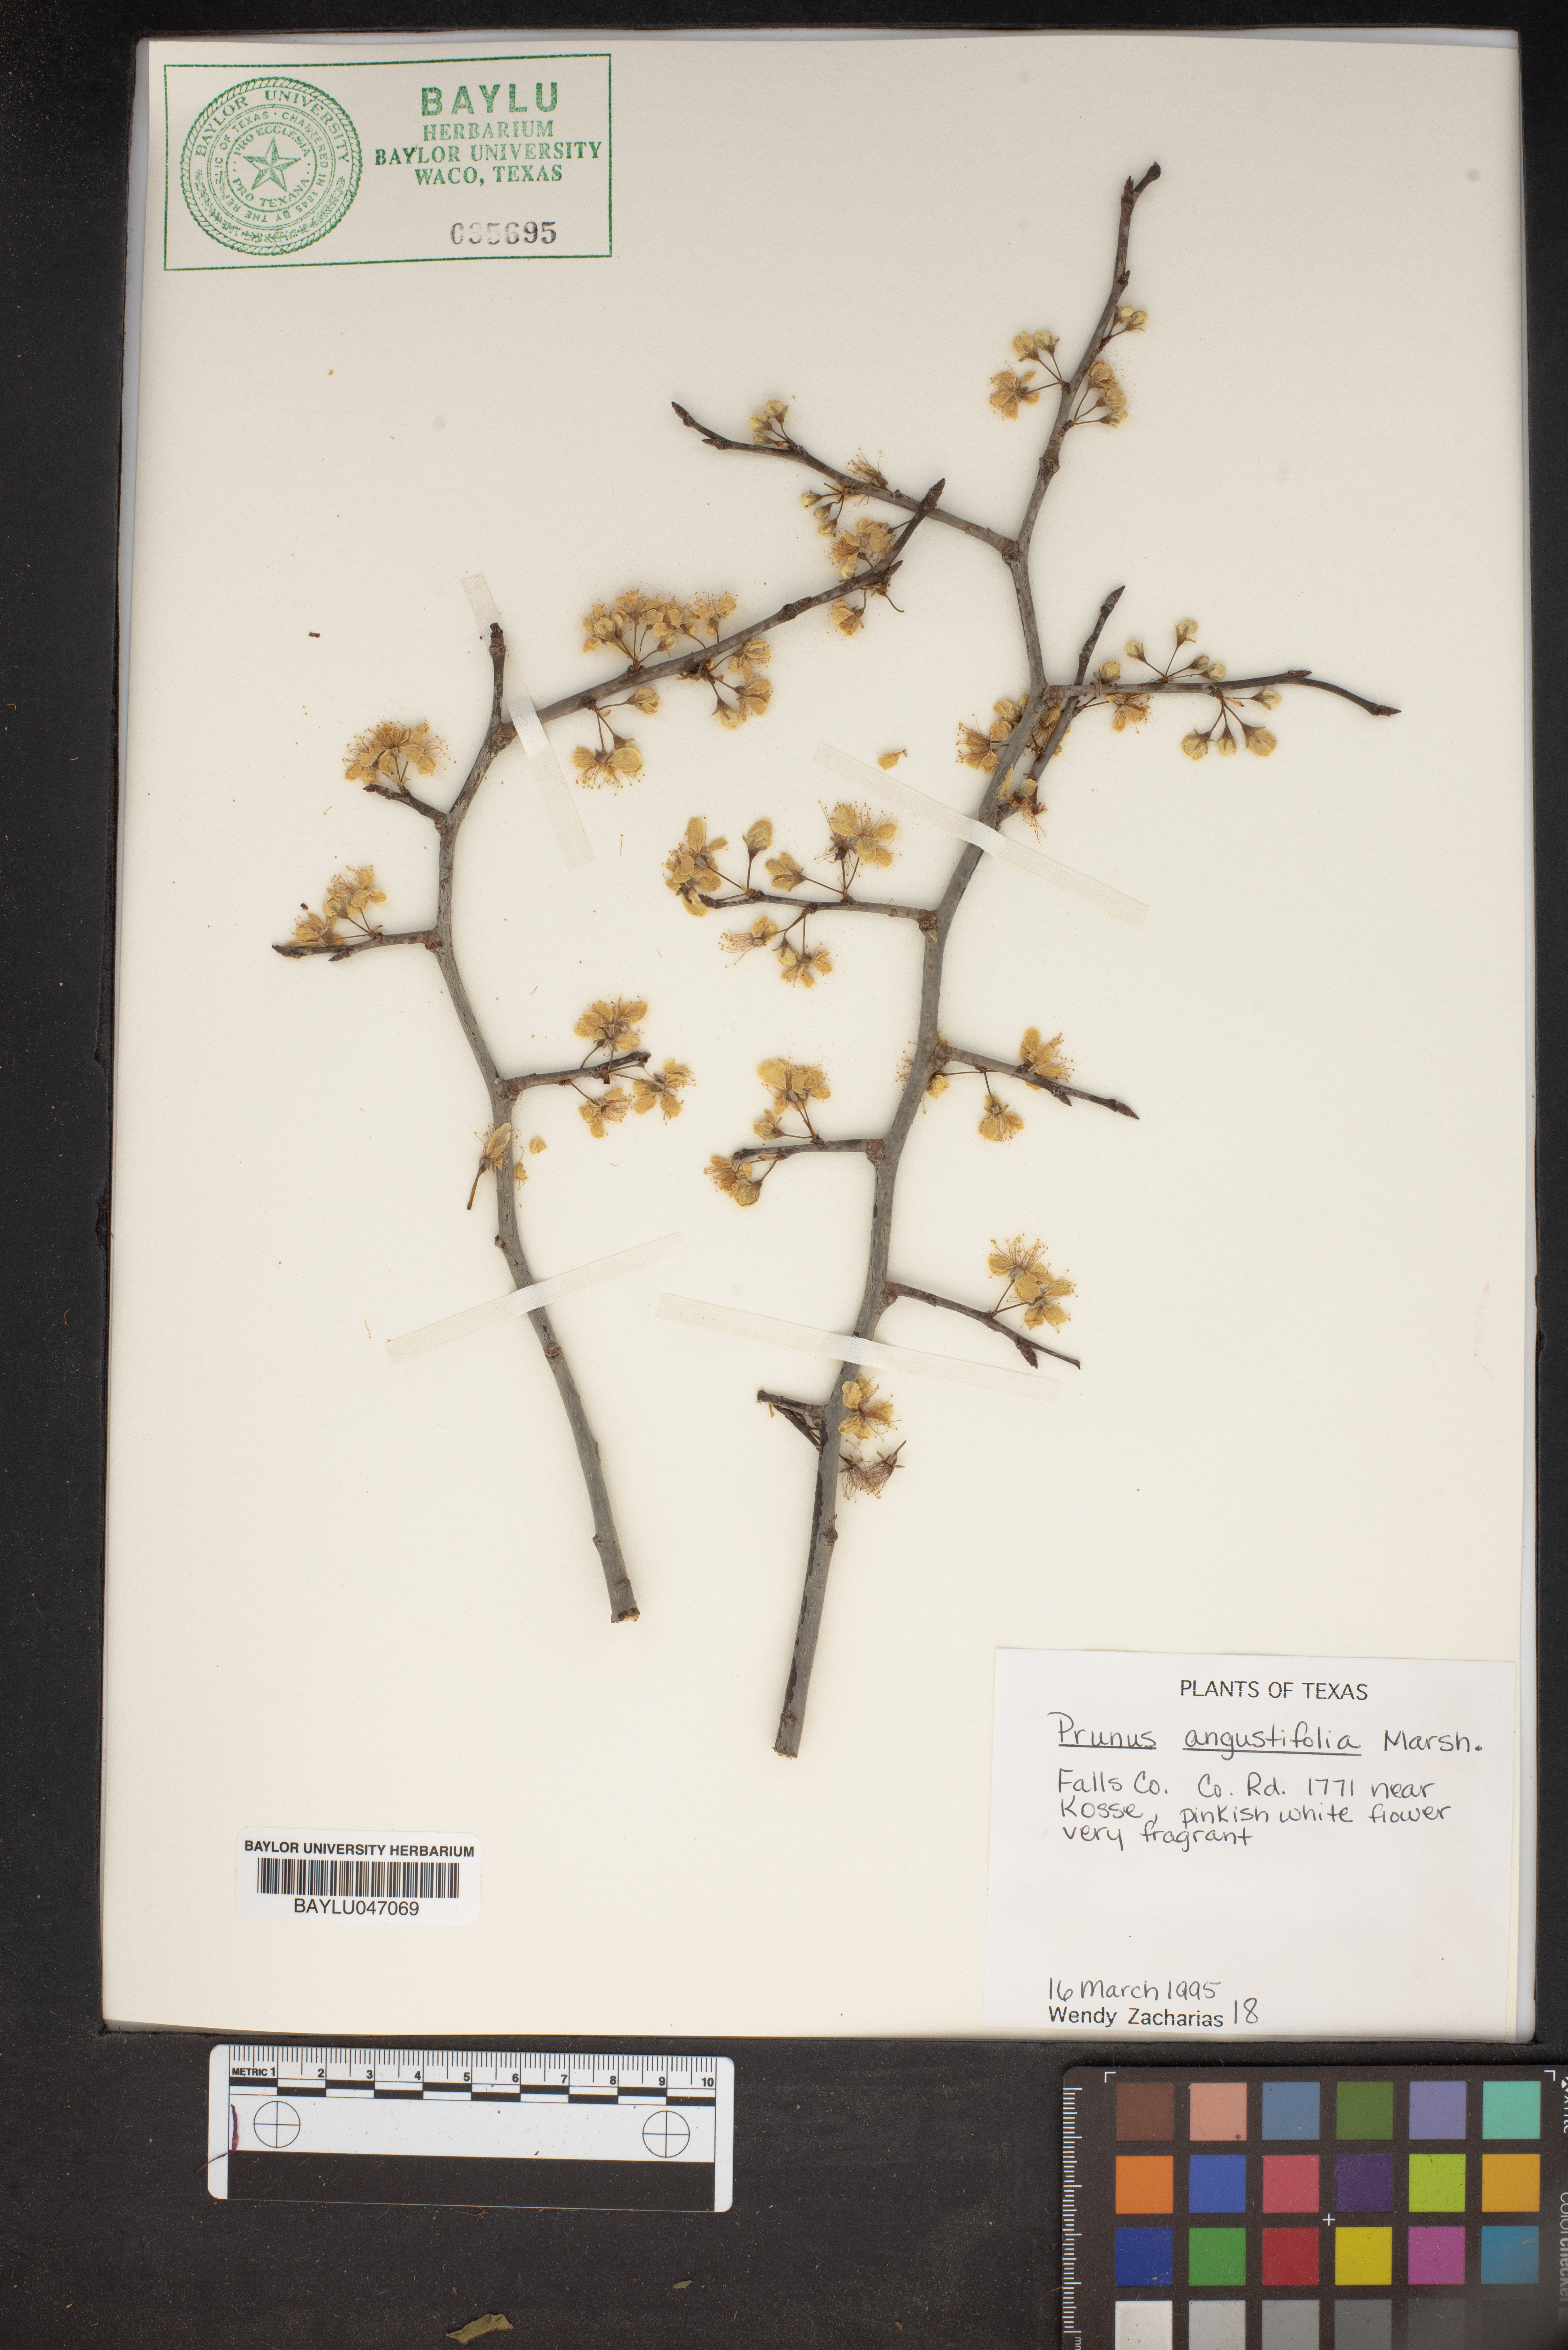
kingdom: Plantae
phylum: Tracheophyta
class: Magnoliopsida
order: Rosales
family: Rosaceae
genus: Prunus
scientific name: Prunus angustifolia
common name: Cherokee plum
